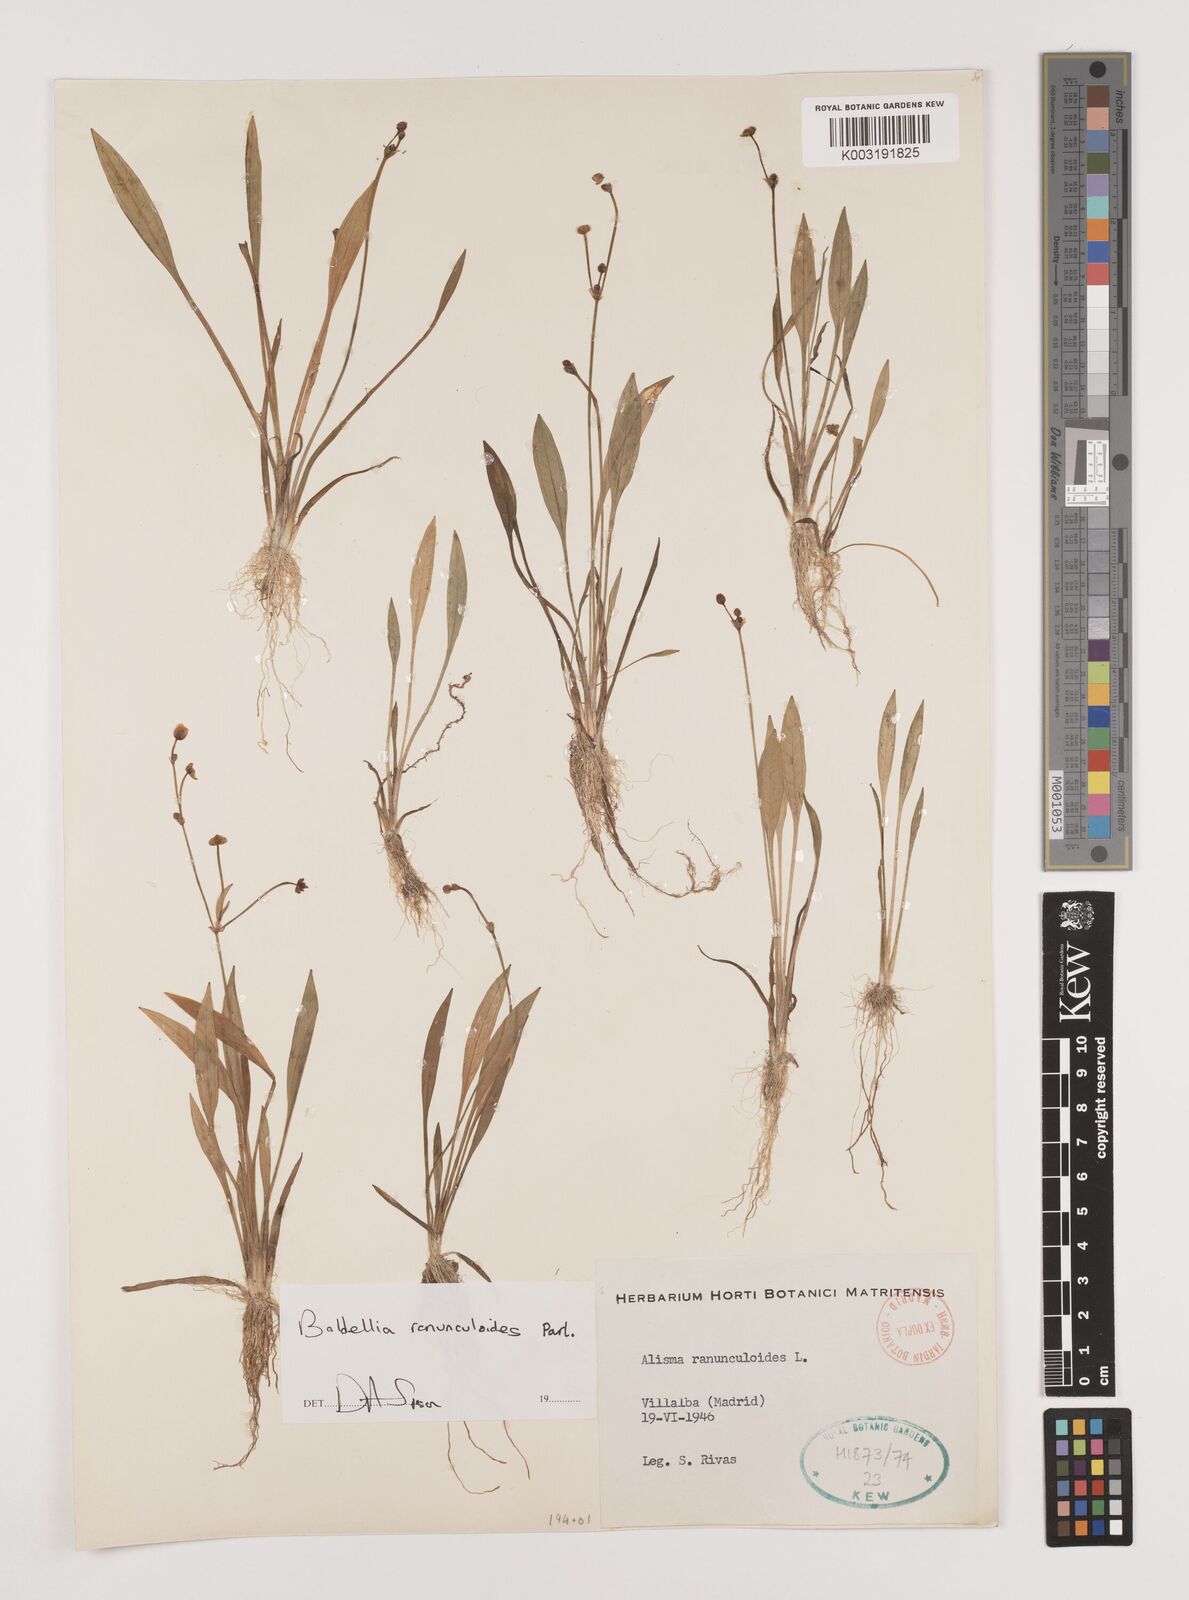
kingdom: Plantae
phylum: Tracheophyta
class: Liliopsida
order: Alismatales
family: Alismataceae
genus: Baldellia
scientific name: Baldellia ranunculoides
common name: Lesser water-plantain
